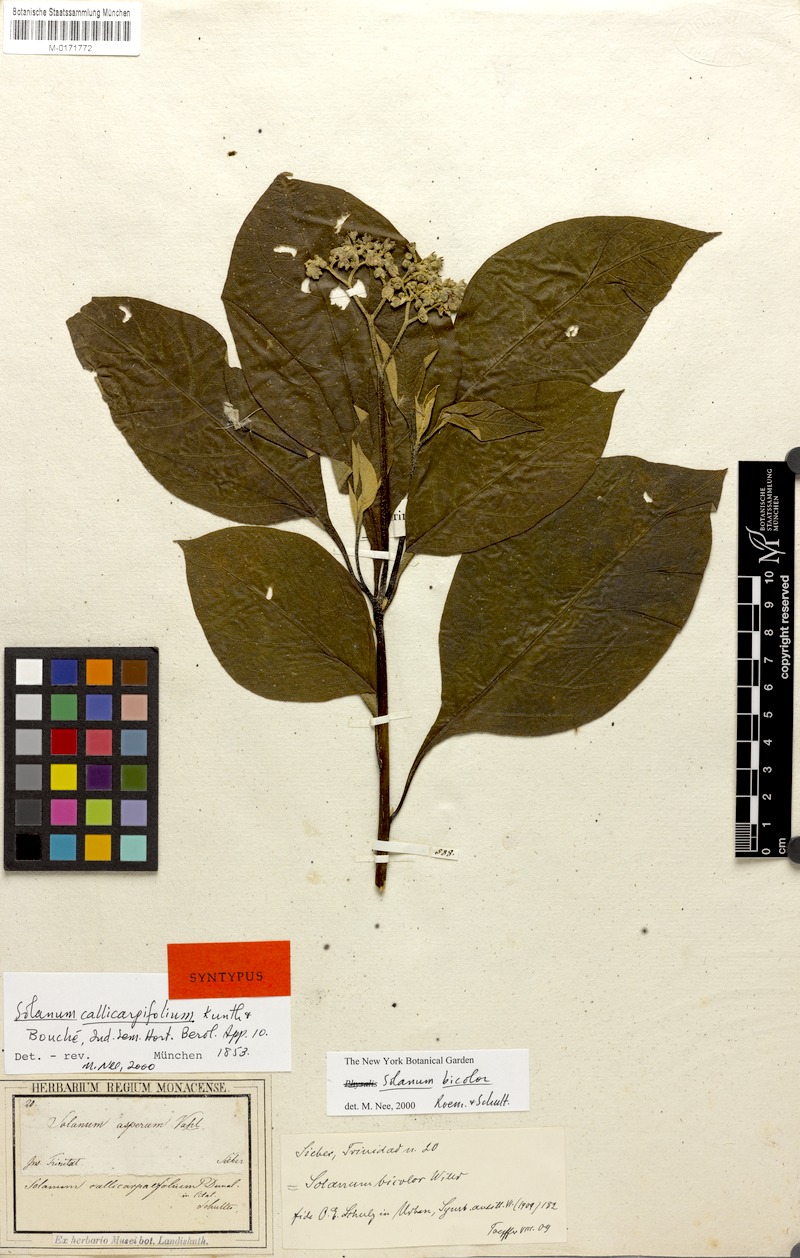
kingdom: Plantae
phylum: Tracheophyta
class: Magnoliopsida
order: Solanales
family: Solanaceae
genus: Solanum
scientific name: Solanum bicolor
